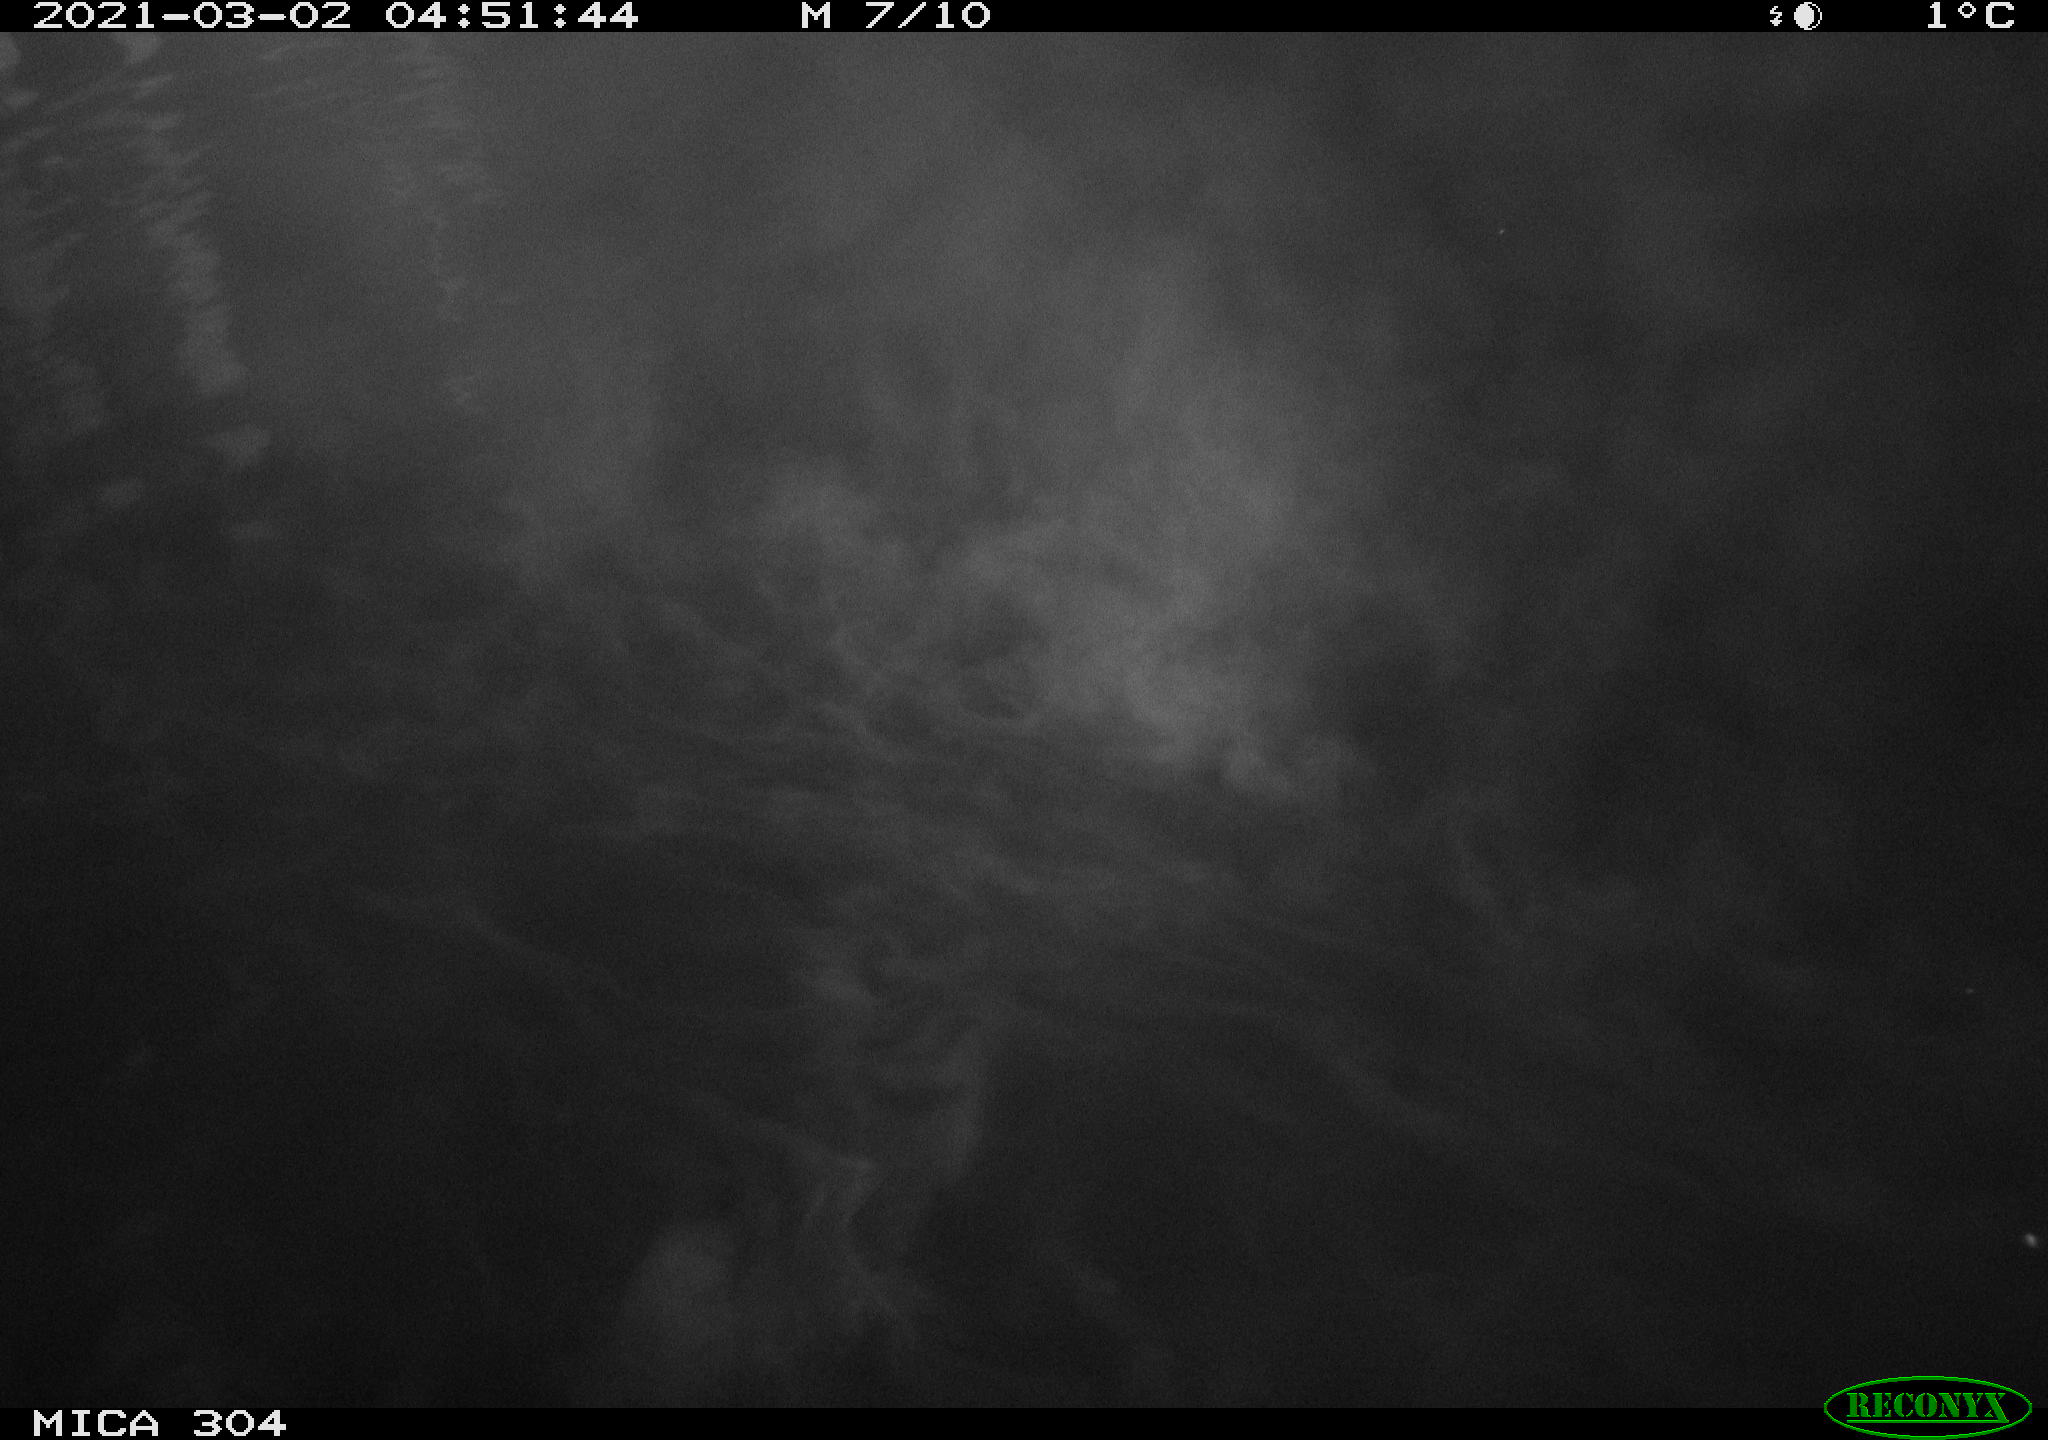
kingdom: Animalia
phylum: Chordata
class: Aves
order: Anseriformes
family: Anatidae
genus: Anas
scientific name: Anas platyrhynchos
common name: Mallard
